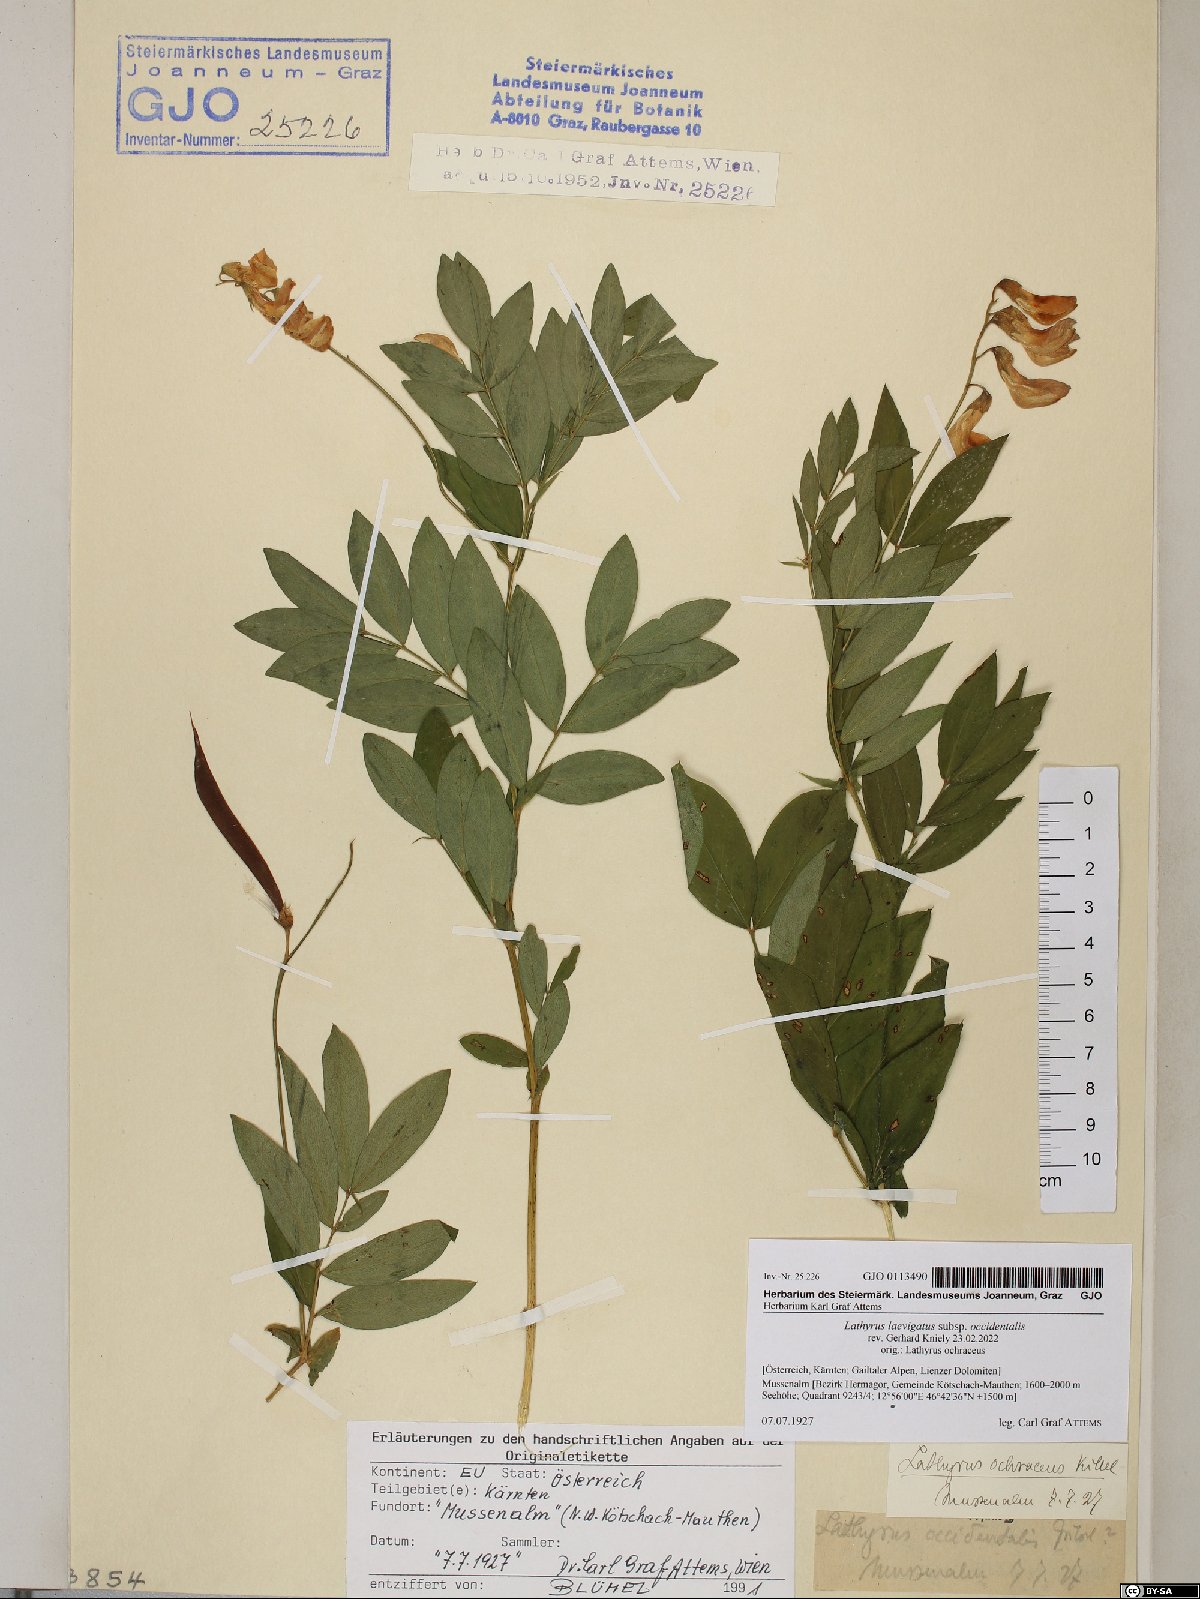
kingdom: Plantae
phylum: Tracheophyta
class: Magnoliopsida
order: Fabales
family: Fabaceae
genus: Lathyrus
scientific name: Lathyrus laevigatus
